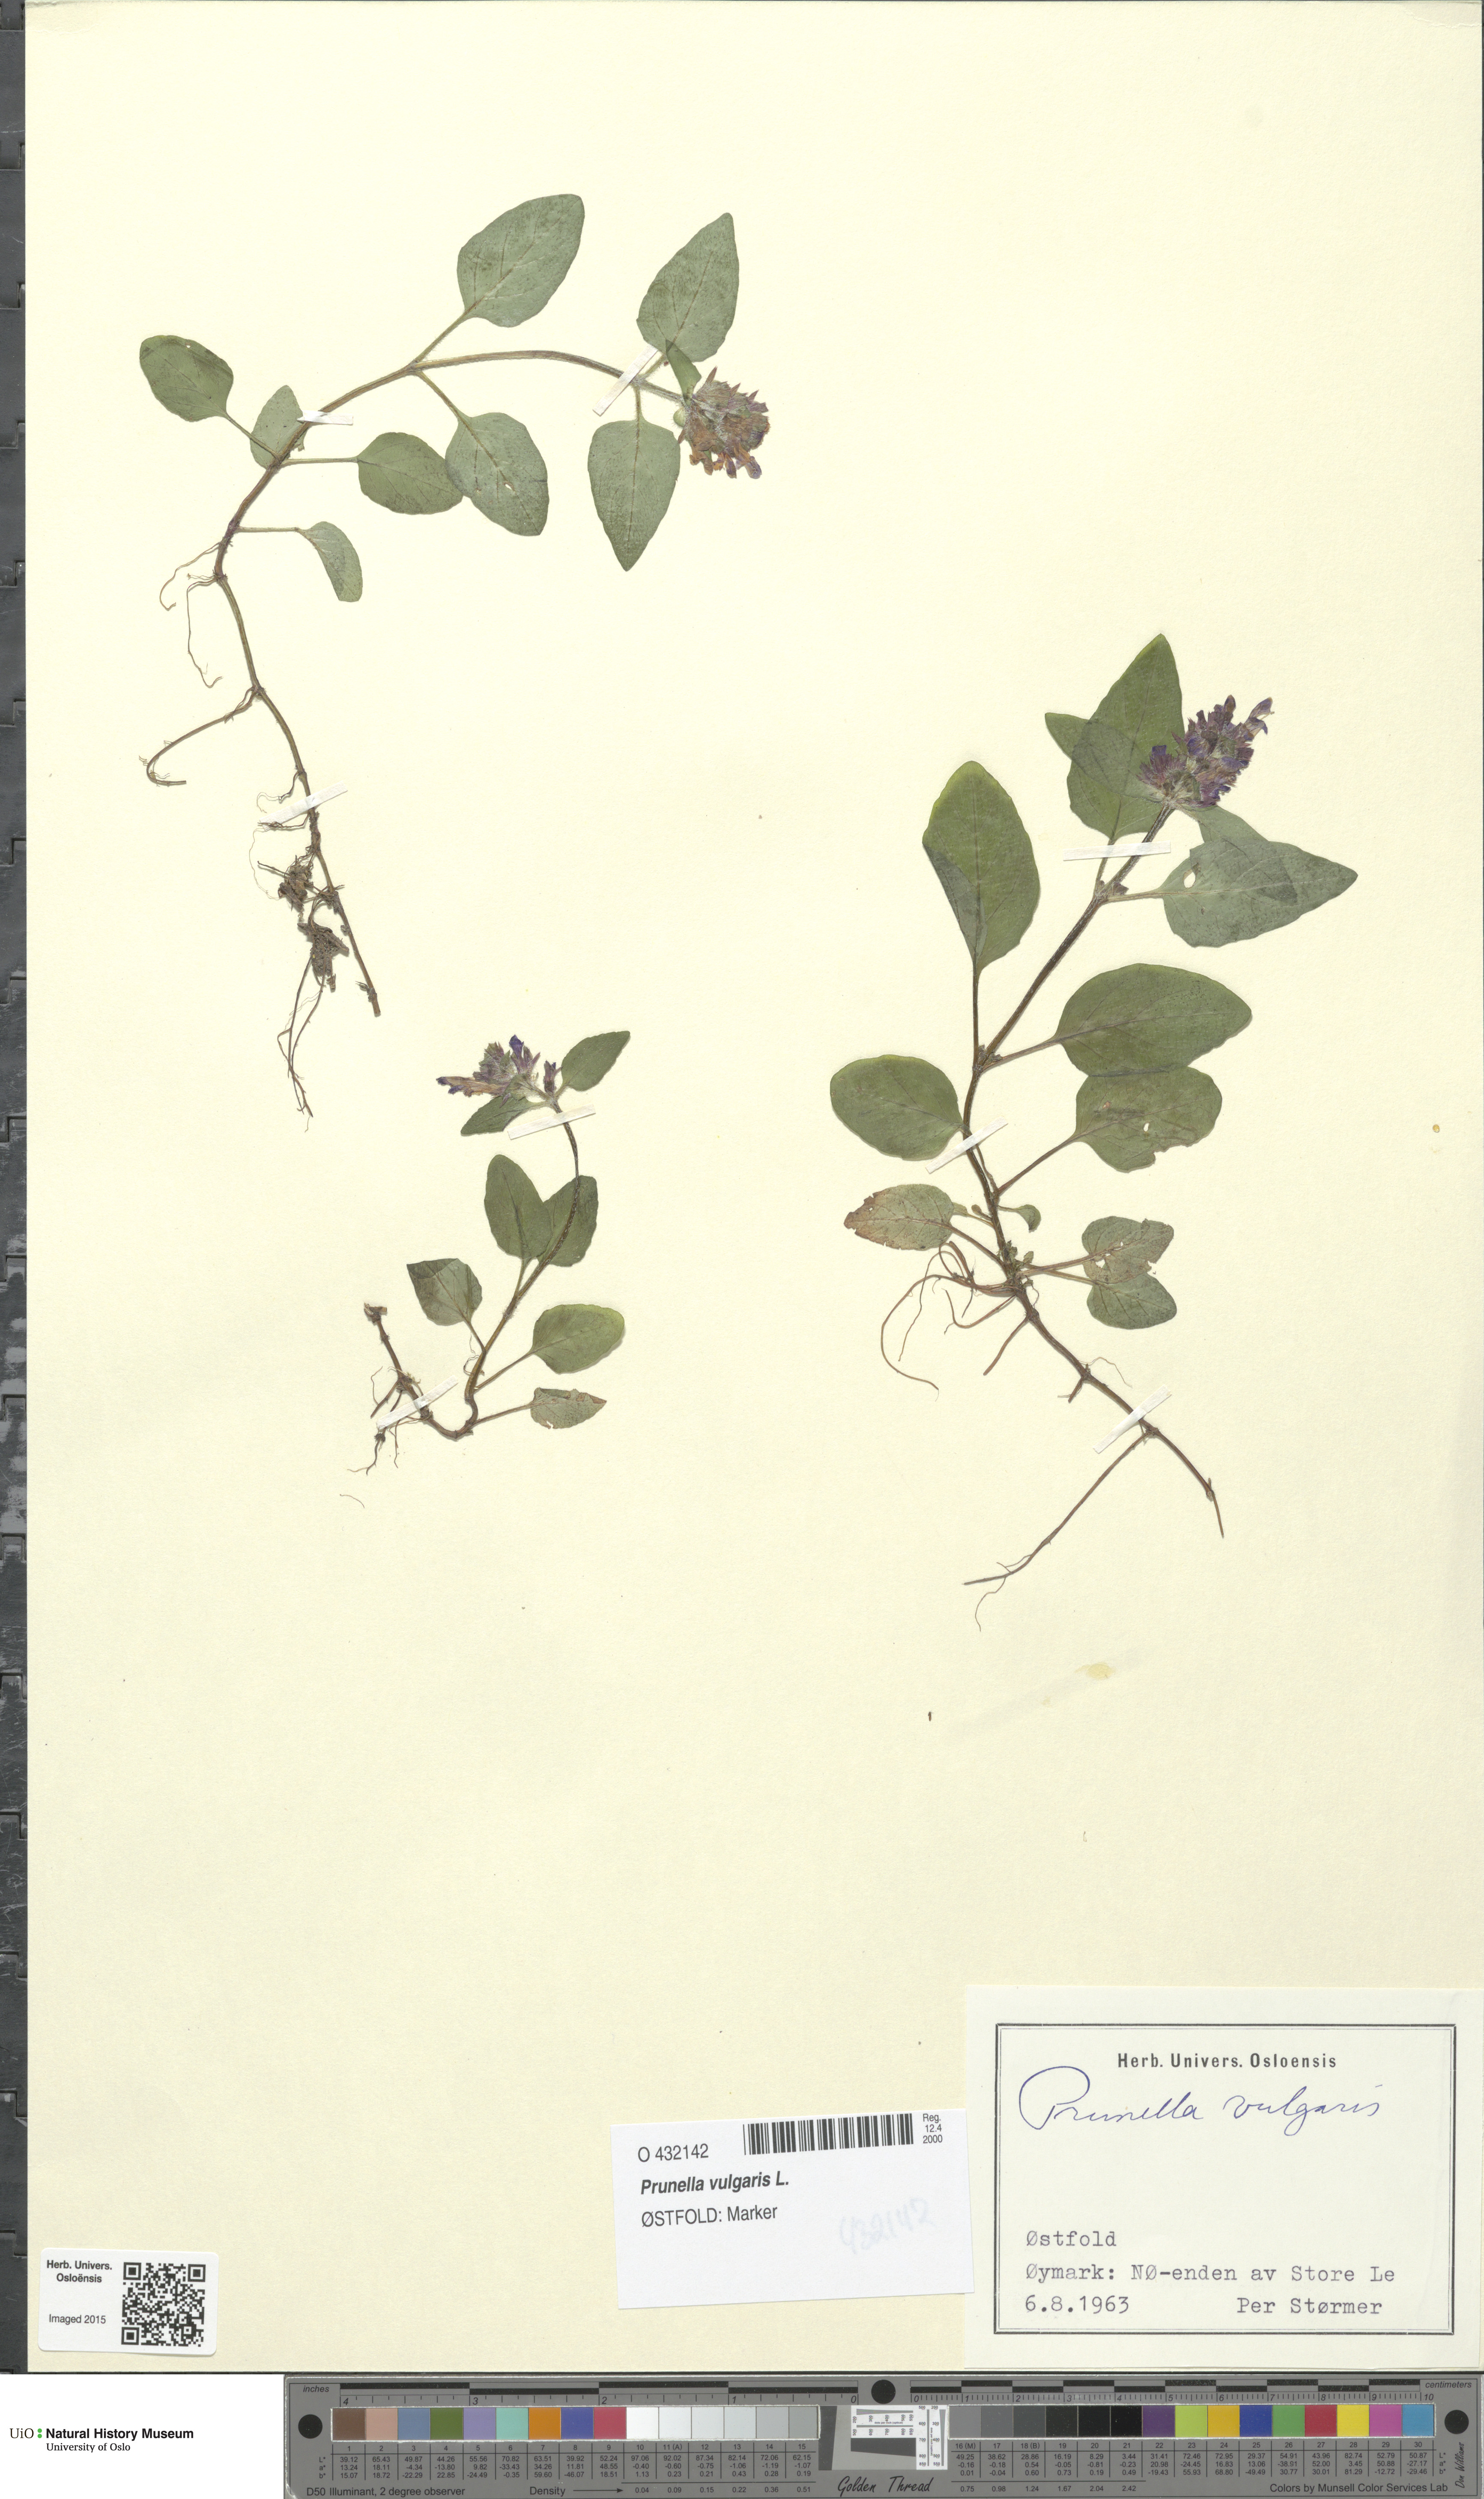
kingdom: Plantae
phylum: Tracheophyta
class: Magnoliopsida
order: Lamiales
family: Lamiaceae
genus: Prunella
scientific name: Prunella vulgaris
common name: Heal-all
